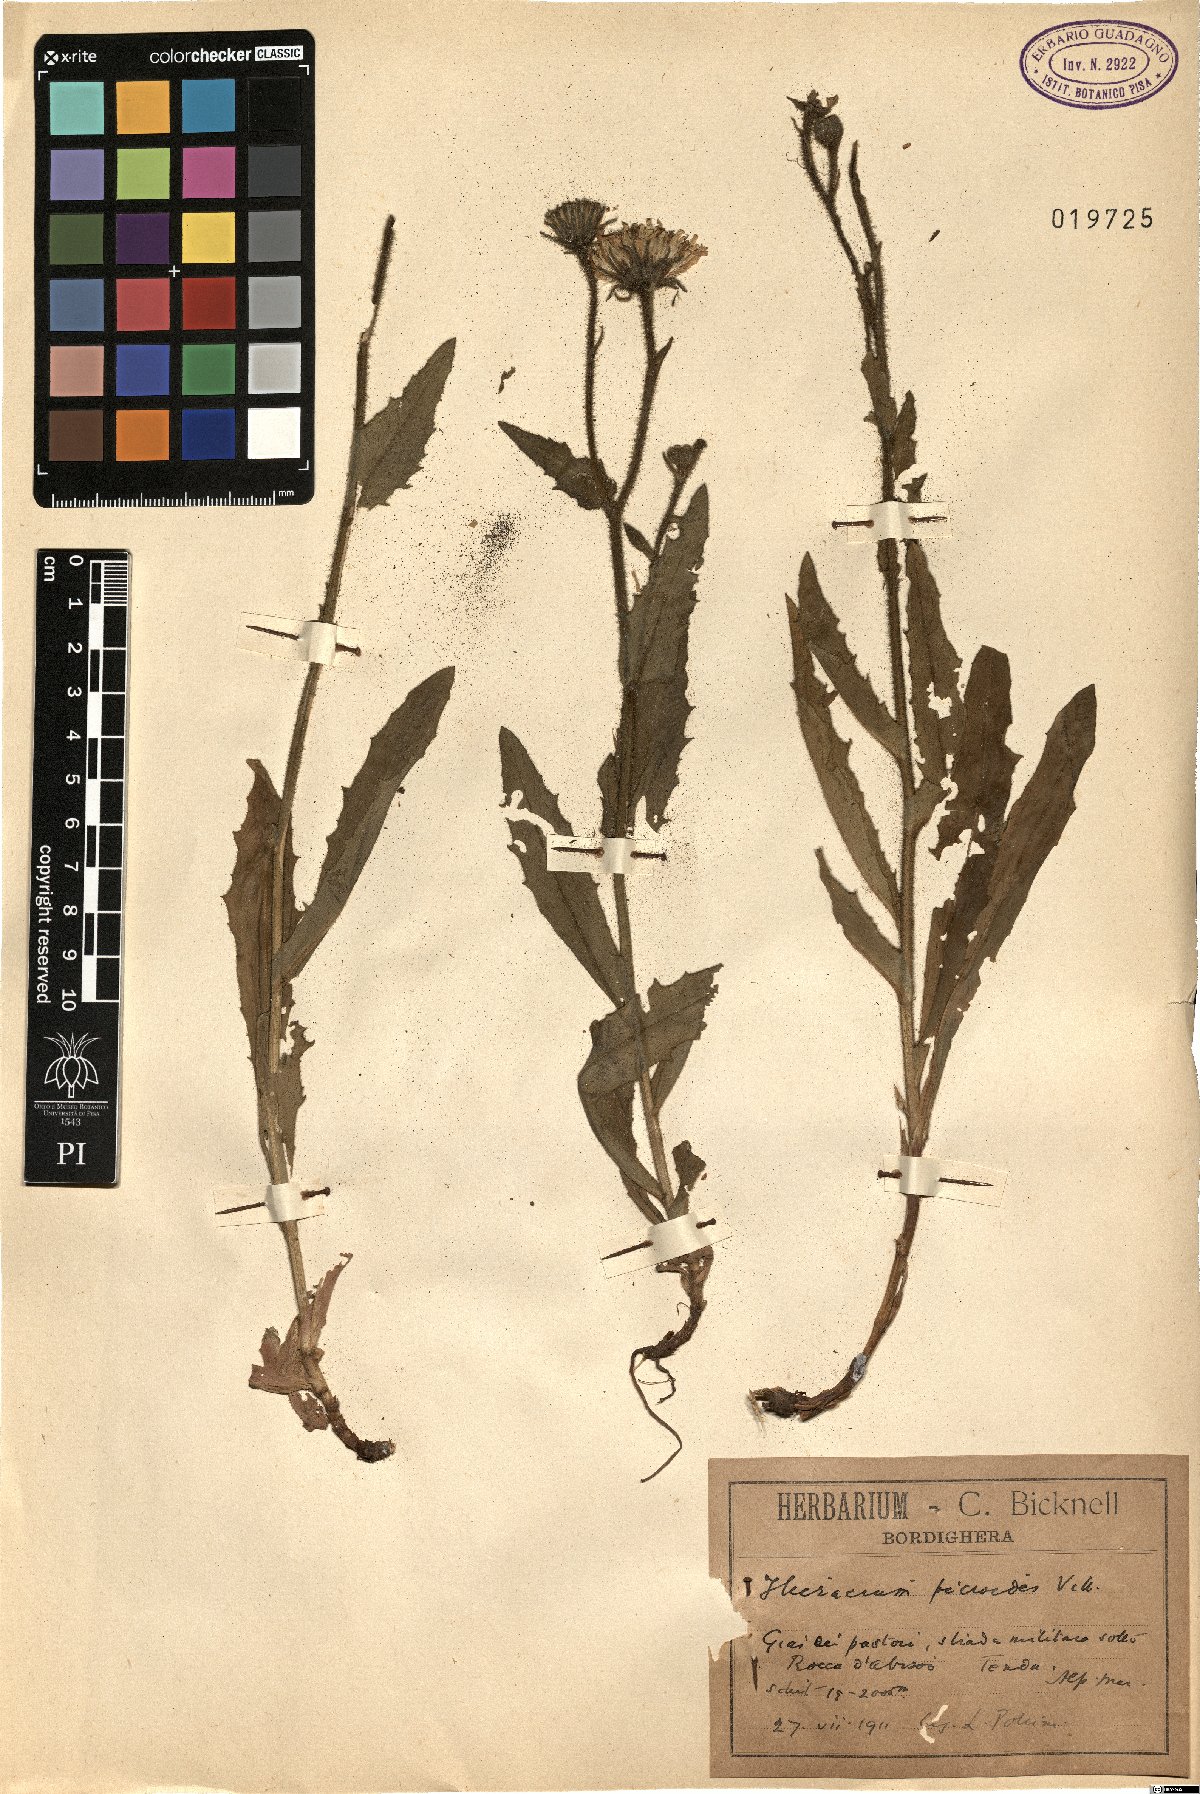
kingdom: Plantae
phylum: Tracheophyta
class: Magnoliopsida
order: Asterales
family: Asteraceae
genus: Hieracium
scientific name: Hieracium picroides
